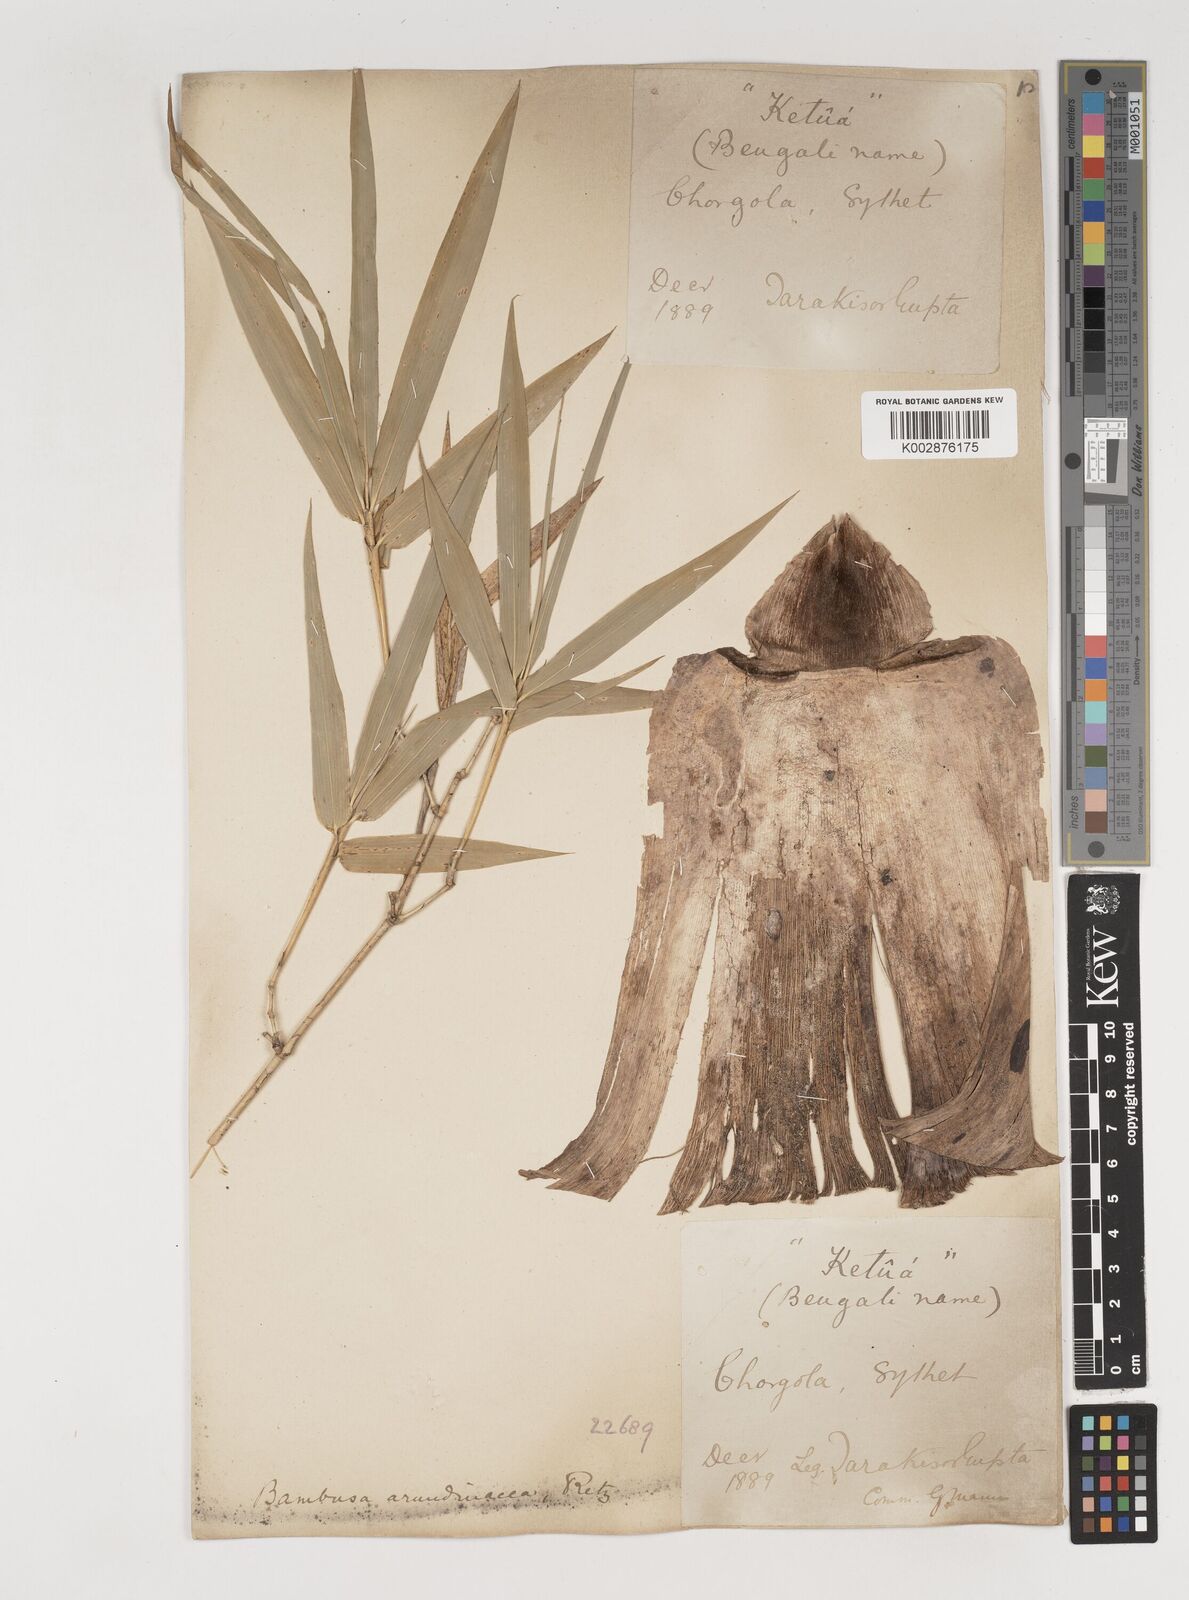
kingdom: Plantae
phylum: Tracheophyta
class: Liliopsida
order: Poales
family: Poaceae
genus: Bambusa
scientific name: Bambusa bambos
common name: Indian thorny bamboo
